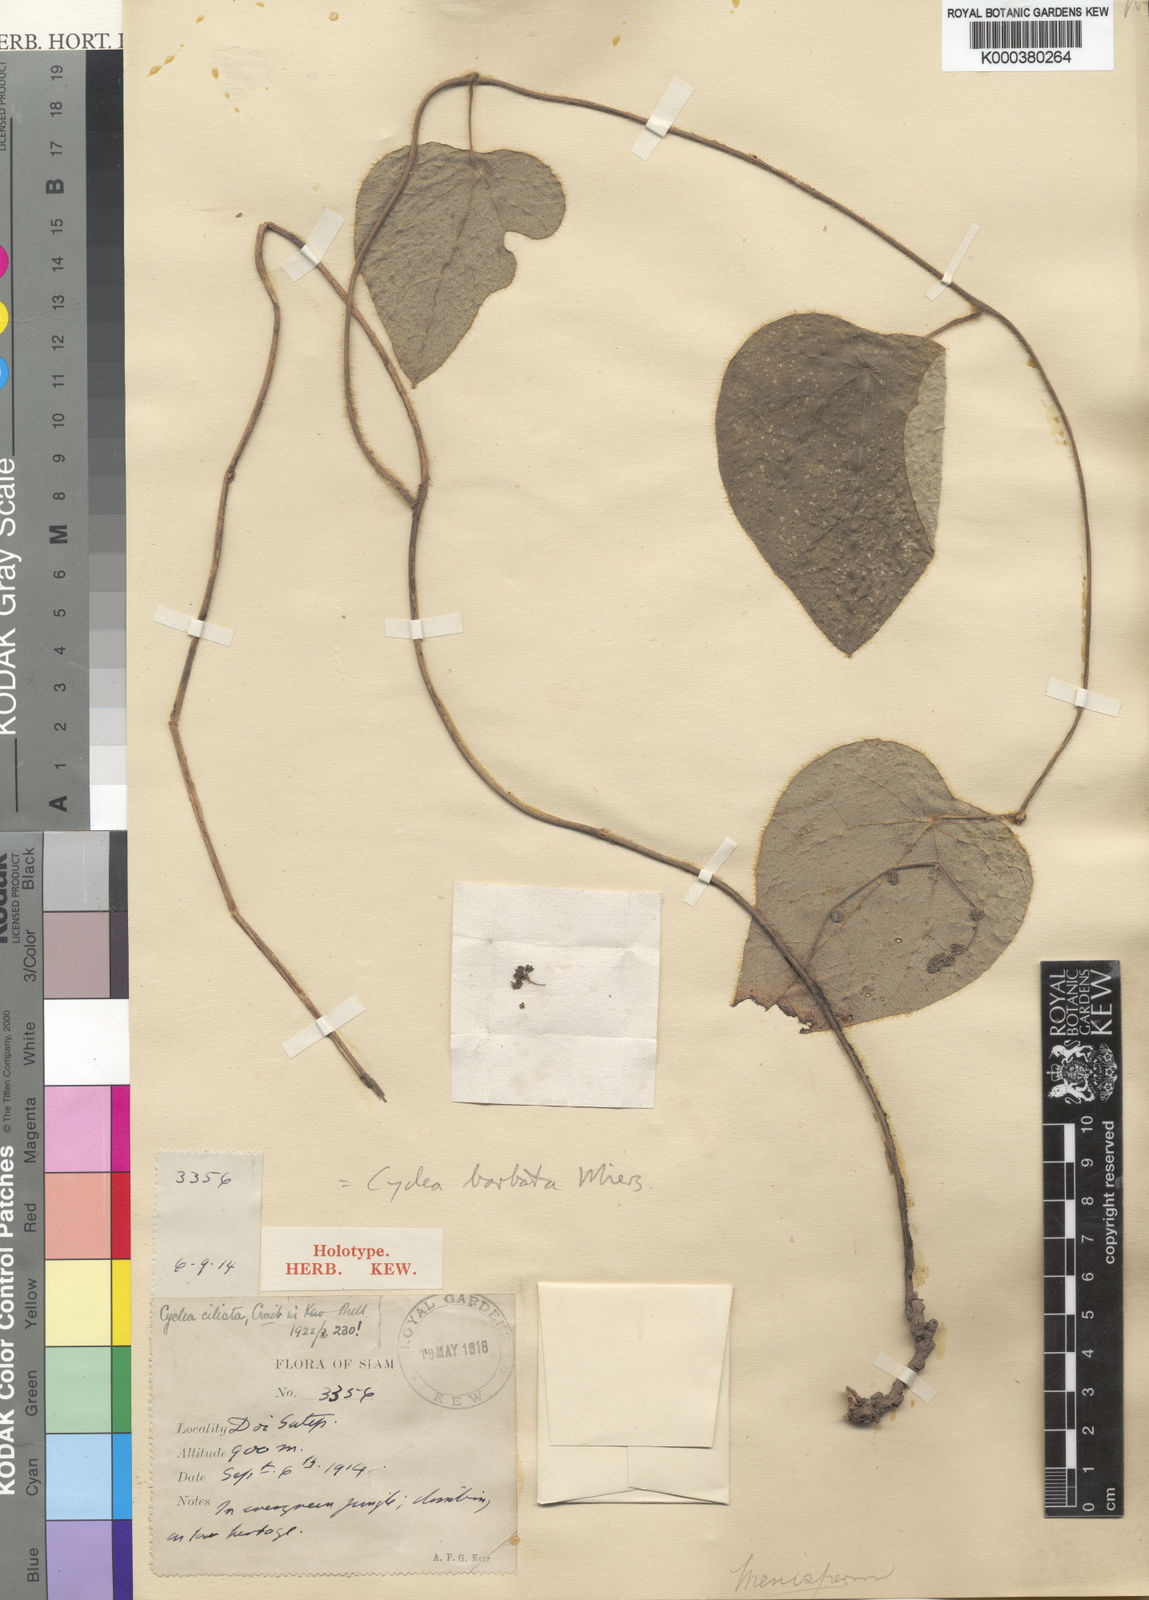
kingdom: Plantae
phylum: Tracheophyta
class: Magnoliopsida
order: Ranunculales
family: Menispermaceae
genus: Cyclea
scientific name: Cyclea barbata
